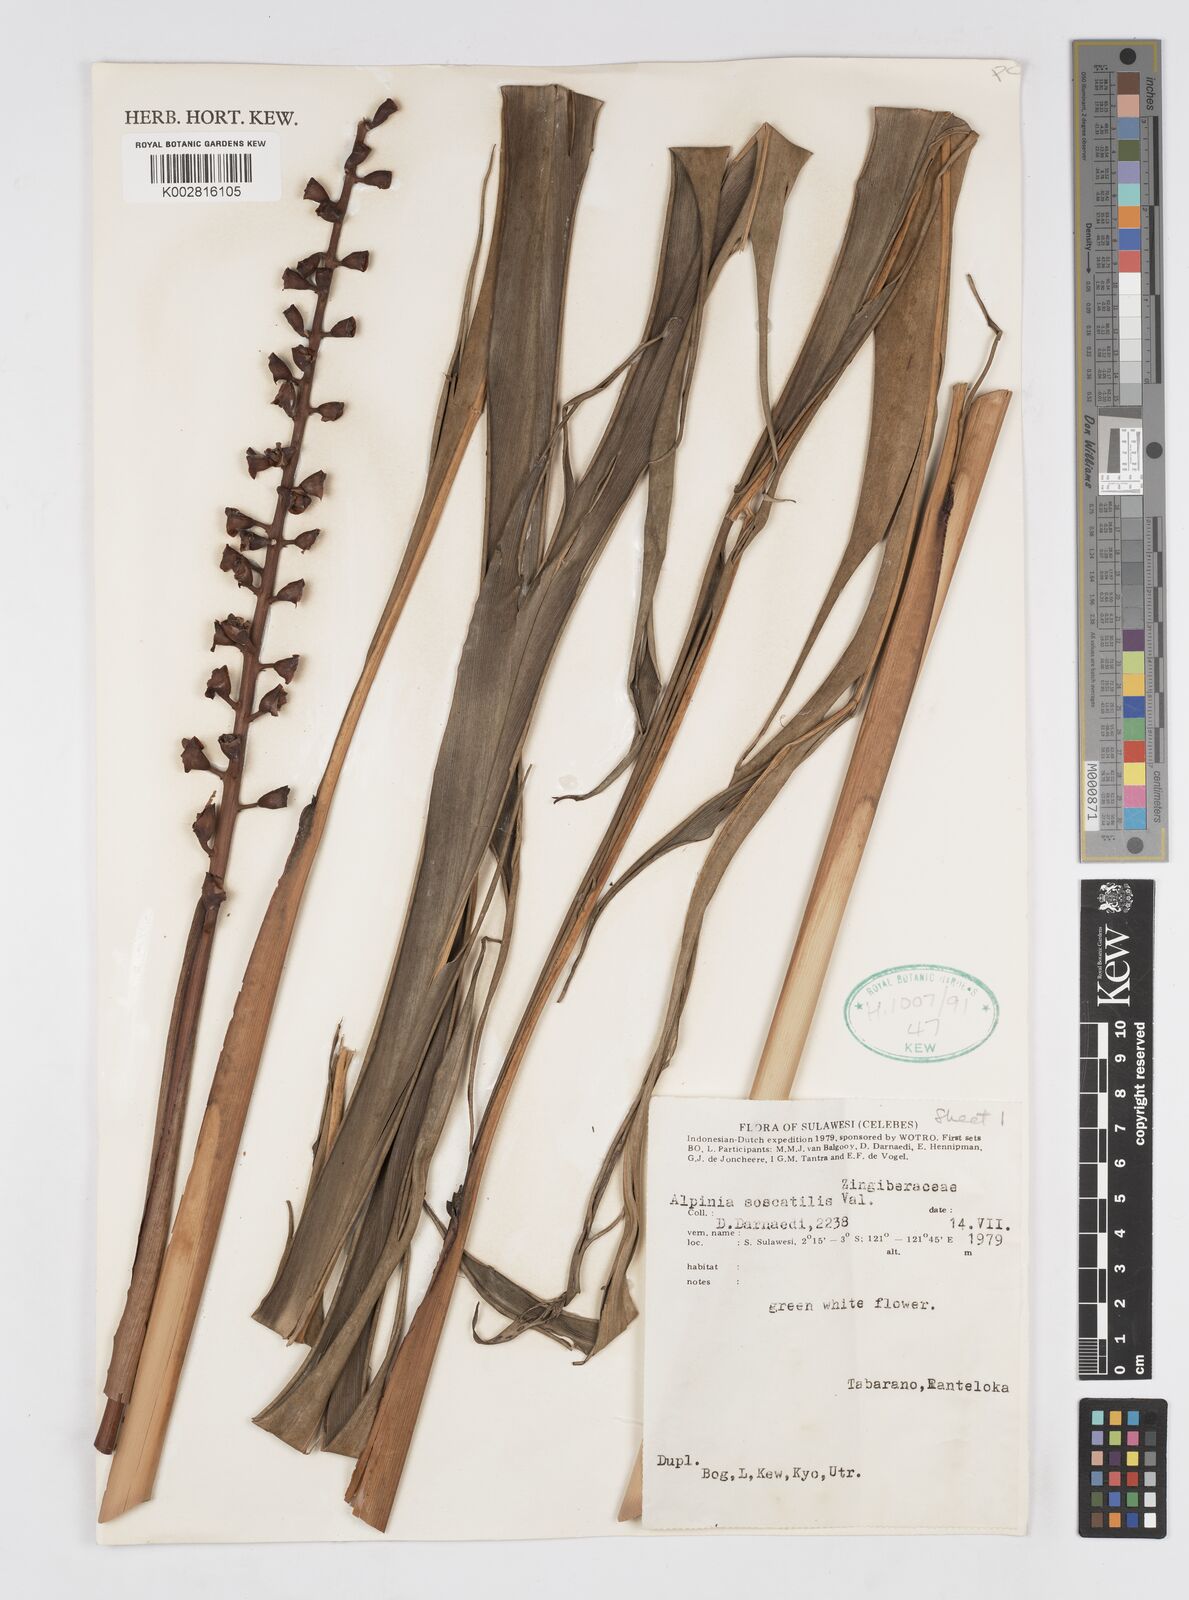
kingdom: Plantae
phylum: Tracheophyta
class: Liliopsida
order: Zingiberales
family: Zingiberaceae
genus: Alpinia
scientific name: Alpinia
